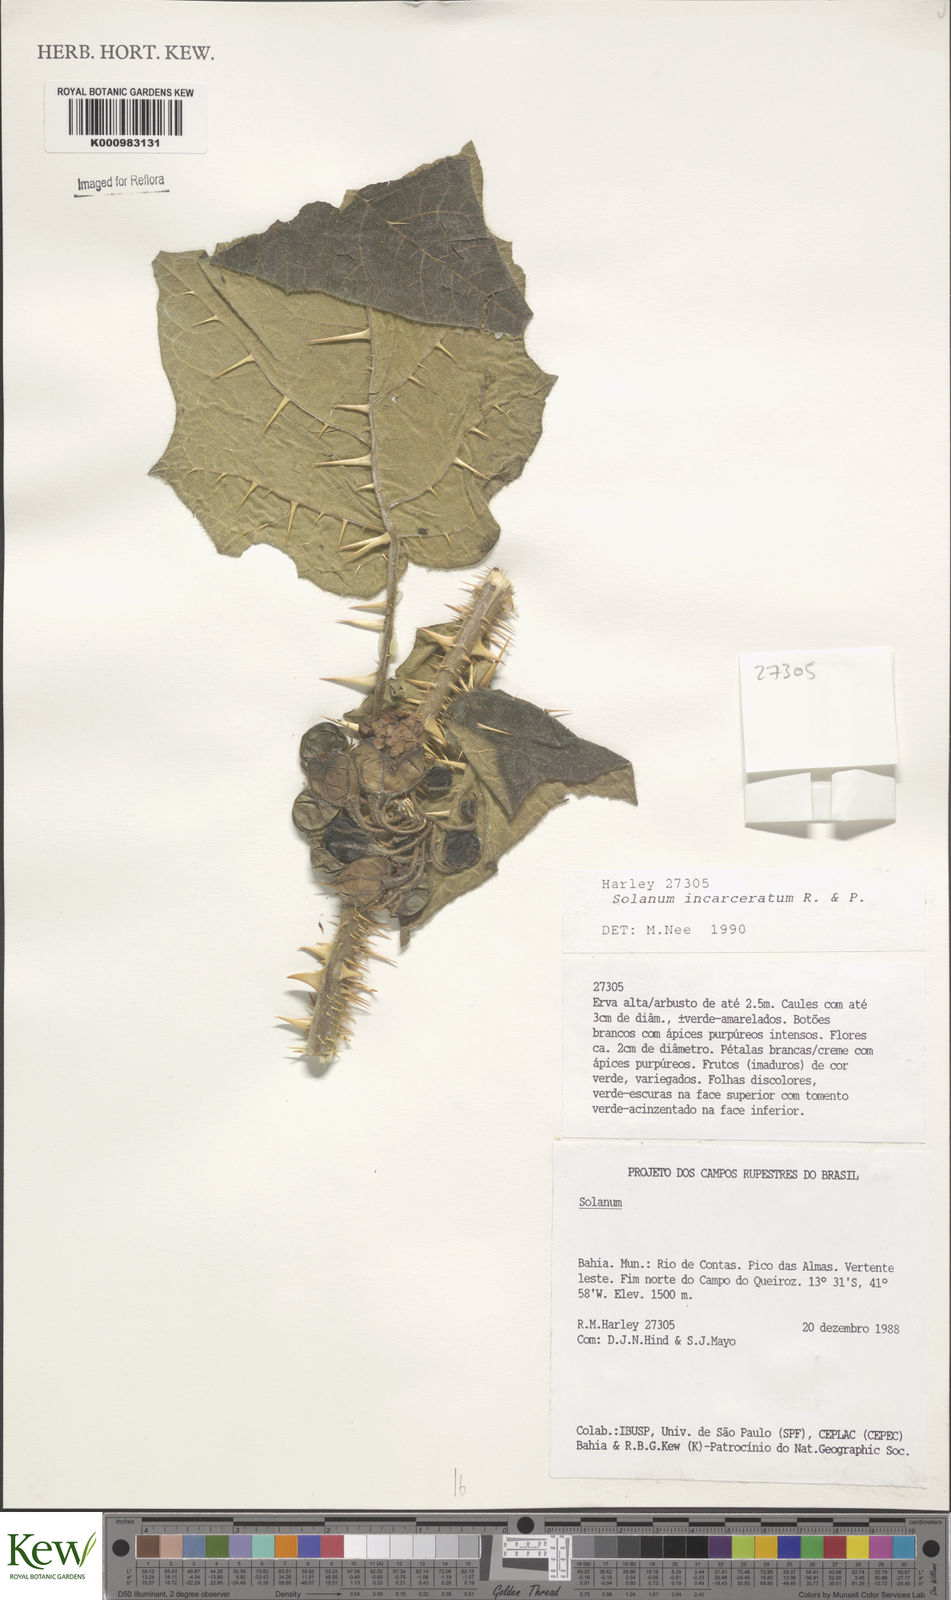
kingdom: Plantae
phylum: Tracheophyta
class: Magnoliopsida
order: Solanales
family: Solanaceae
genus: Solanum
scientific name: Solanum incarceratum
